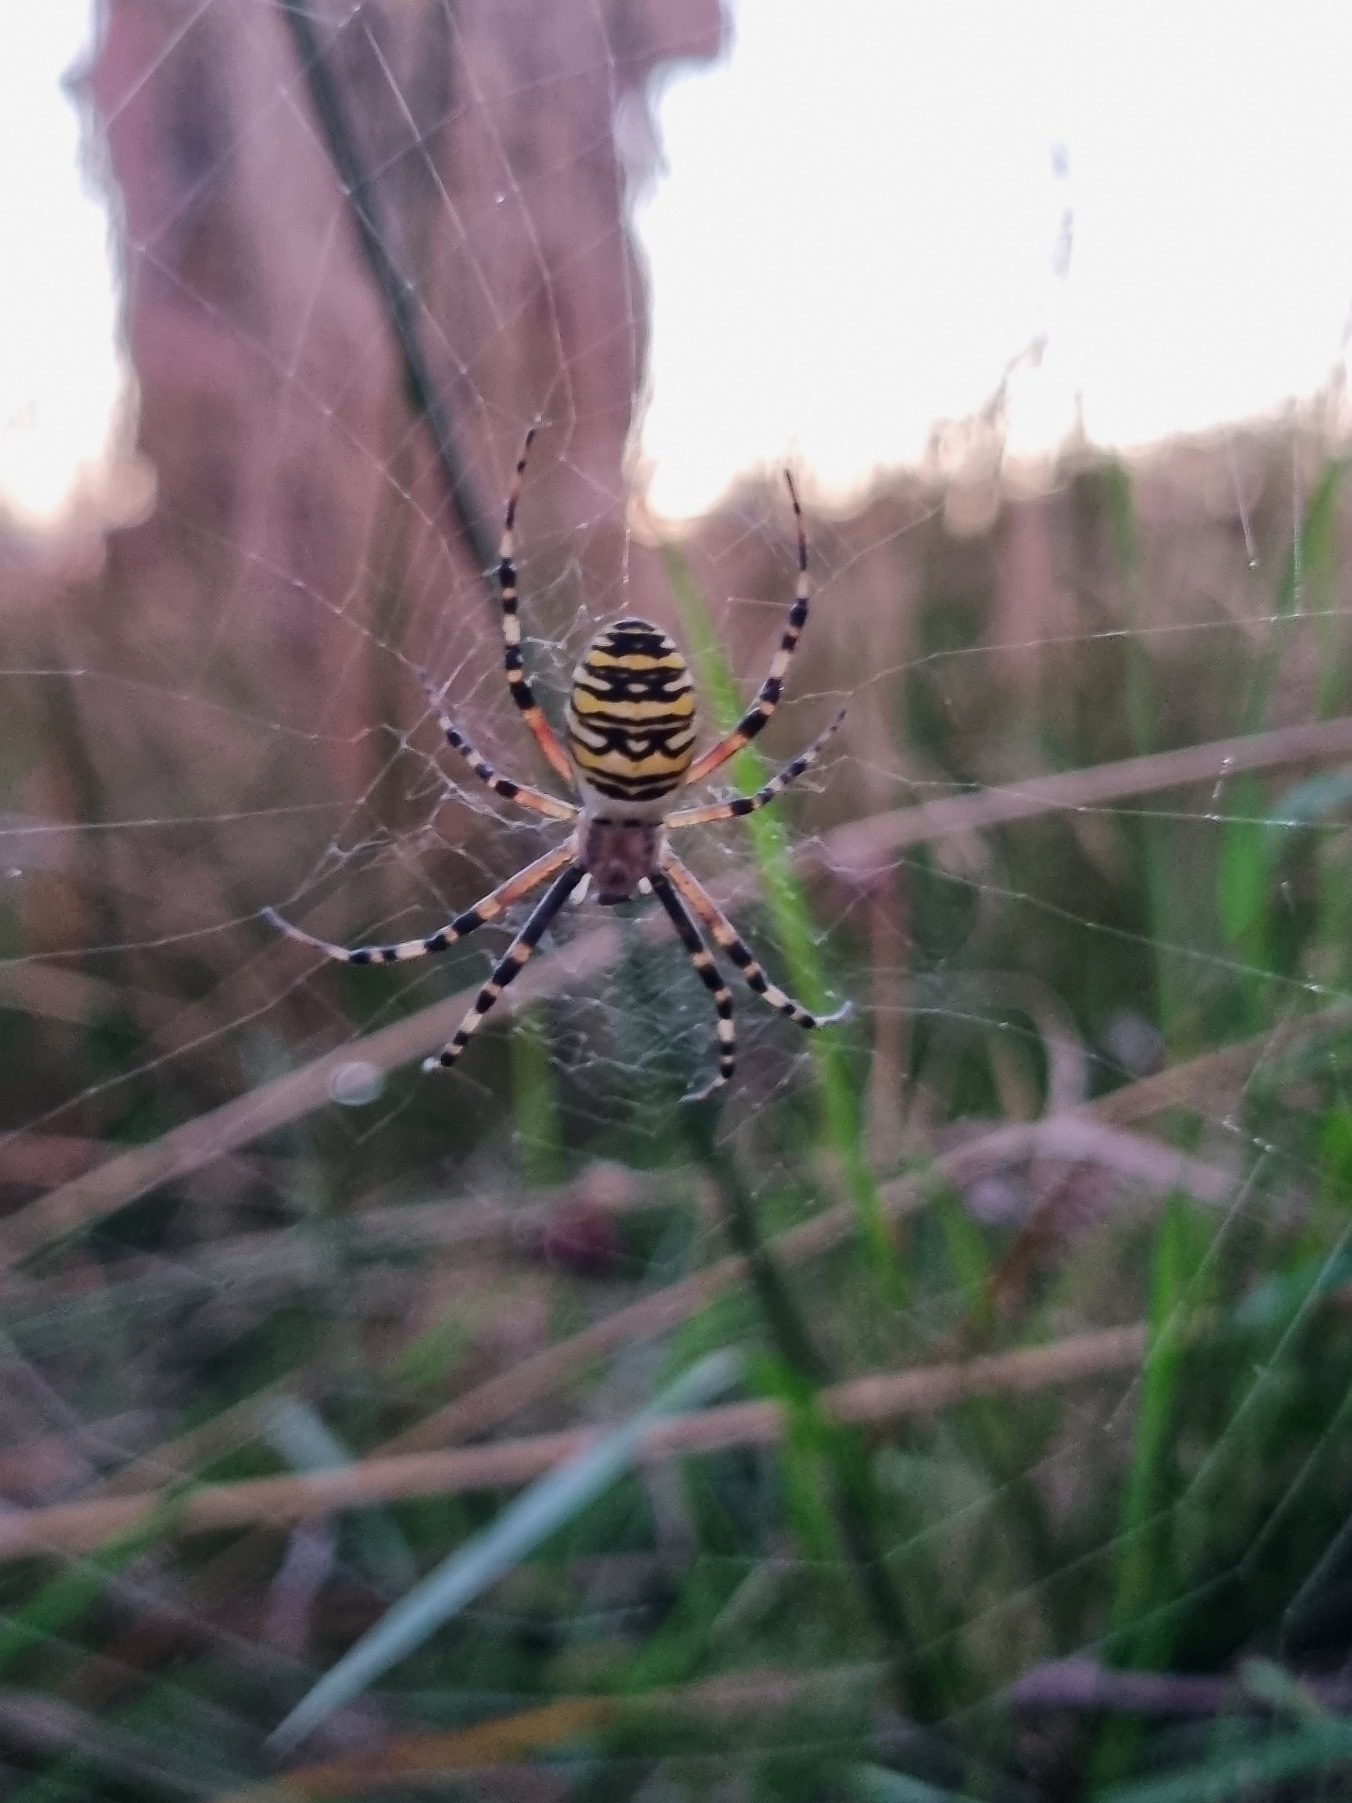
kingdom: Animalia
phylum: Arthropoda
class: Arachnida
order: Araneae
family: Araneidae
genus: Argiope
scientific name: Argiope bruennichi
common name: Hvepseedderkop
